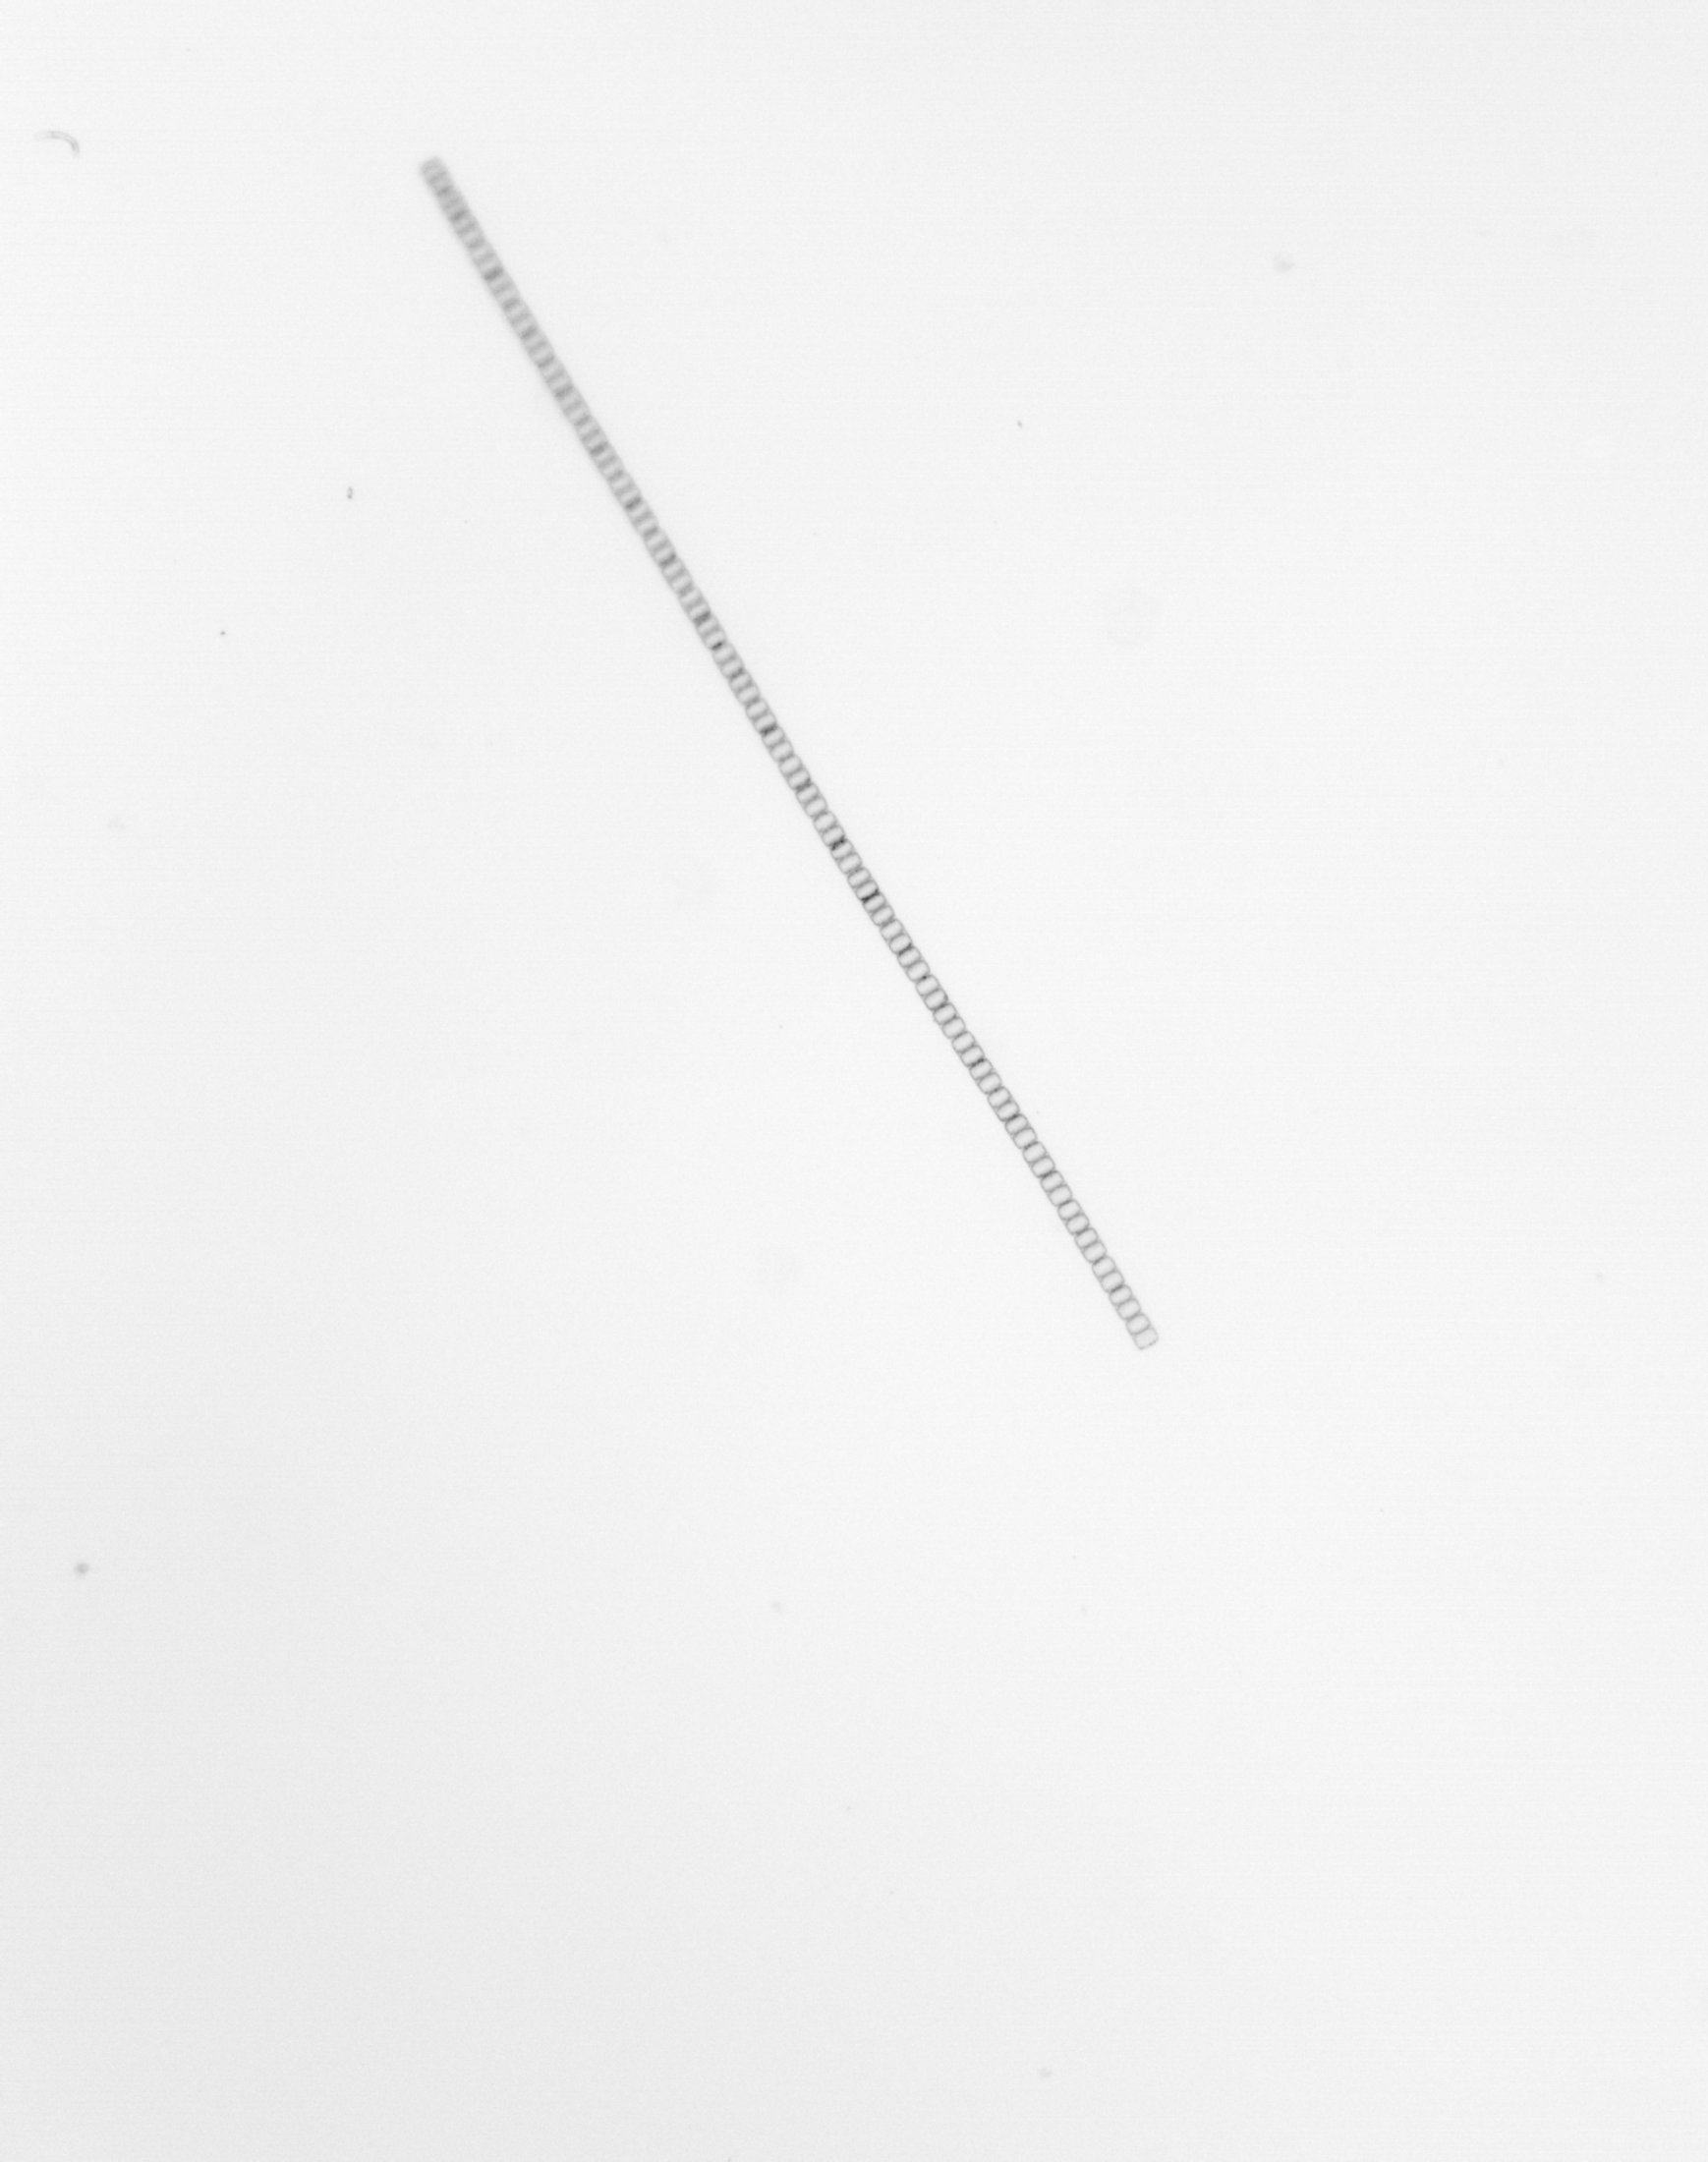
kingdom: Chromista
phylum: Ochrophyta
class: Bacillariophyceae
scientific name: Bacillariophyceae
